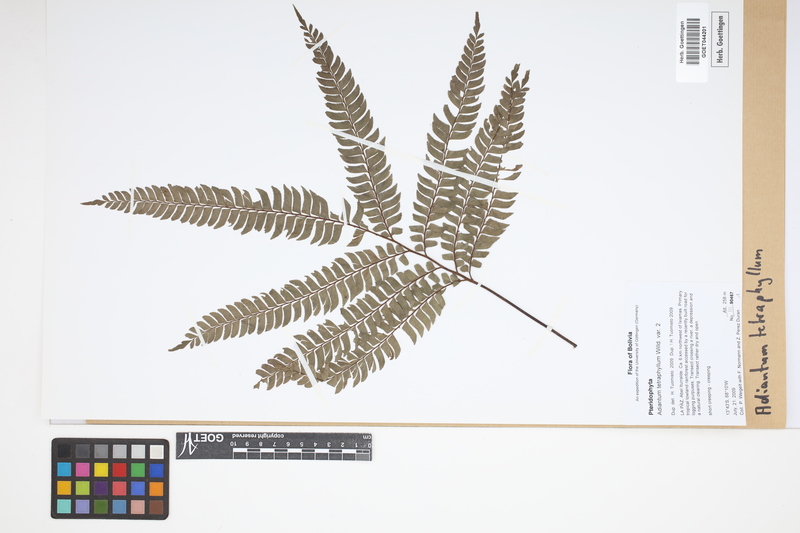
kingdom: Plantae
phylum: Tracheophyta
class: Polypodiopsida
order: Polypodiales
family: Pteridaceae
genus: Adiantum
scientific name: Adiantum tetraphyllum
